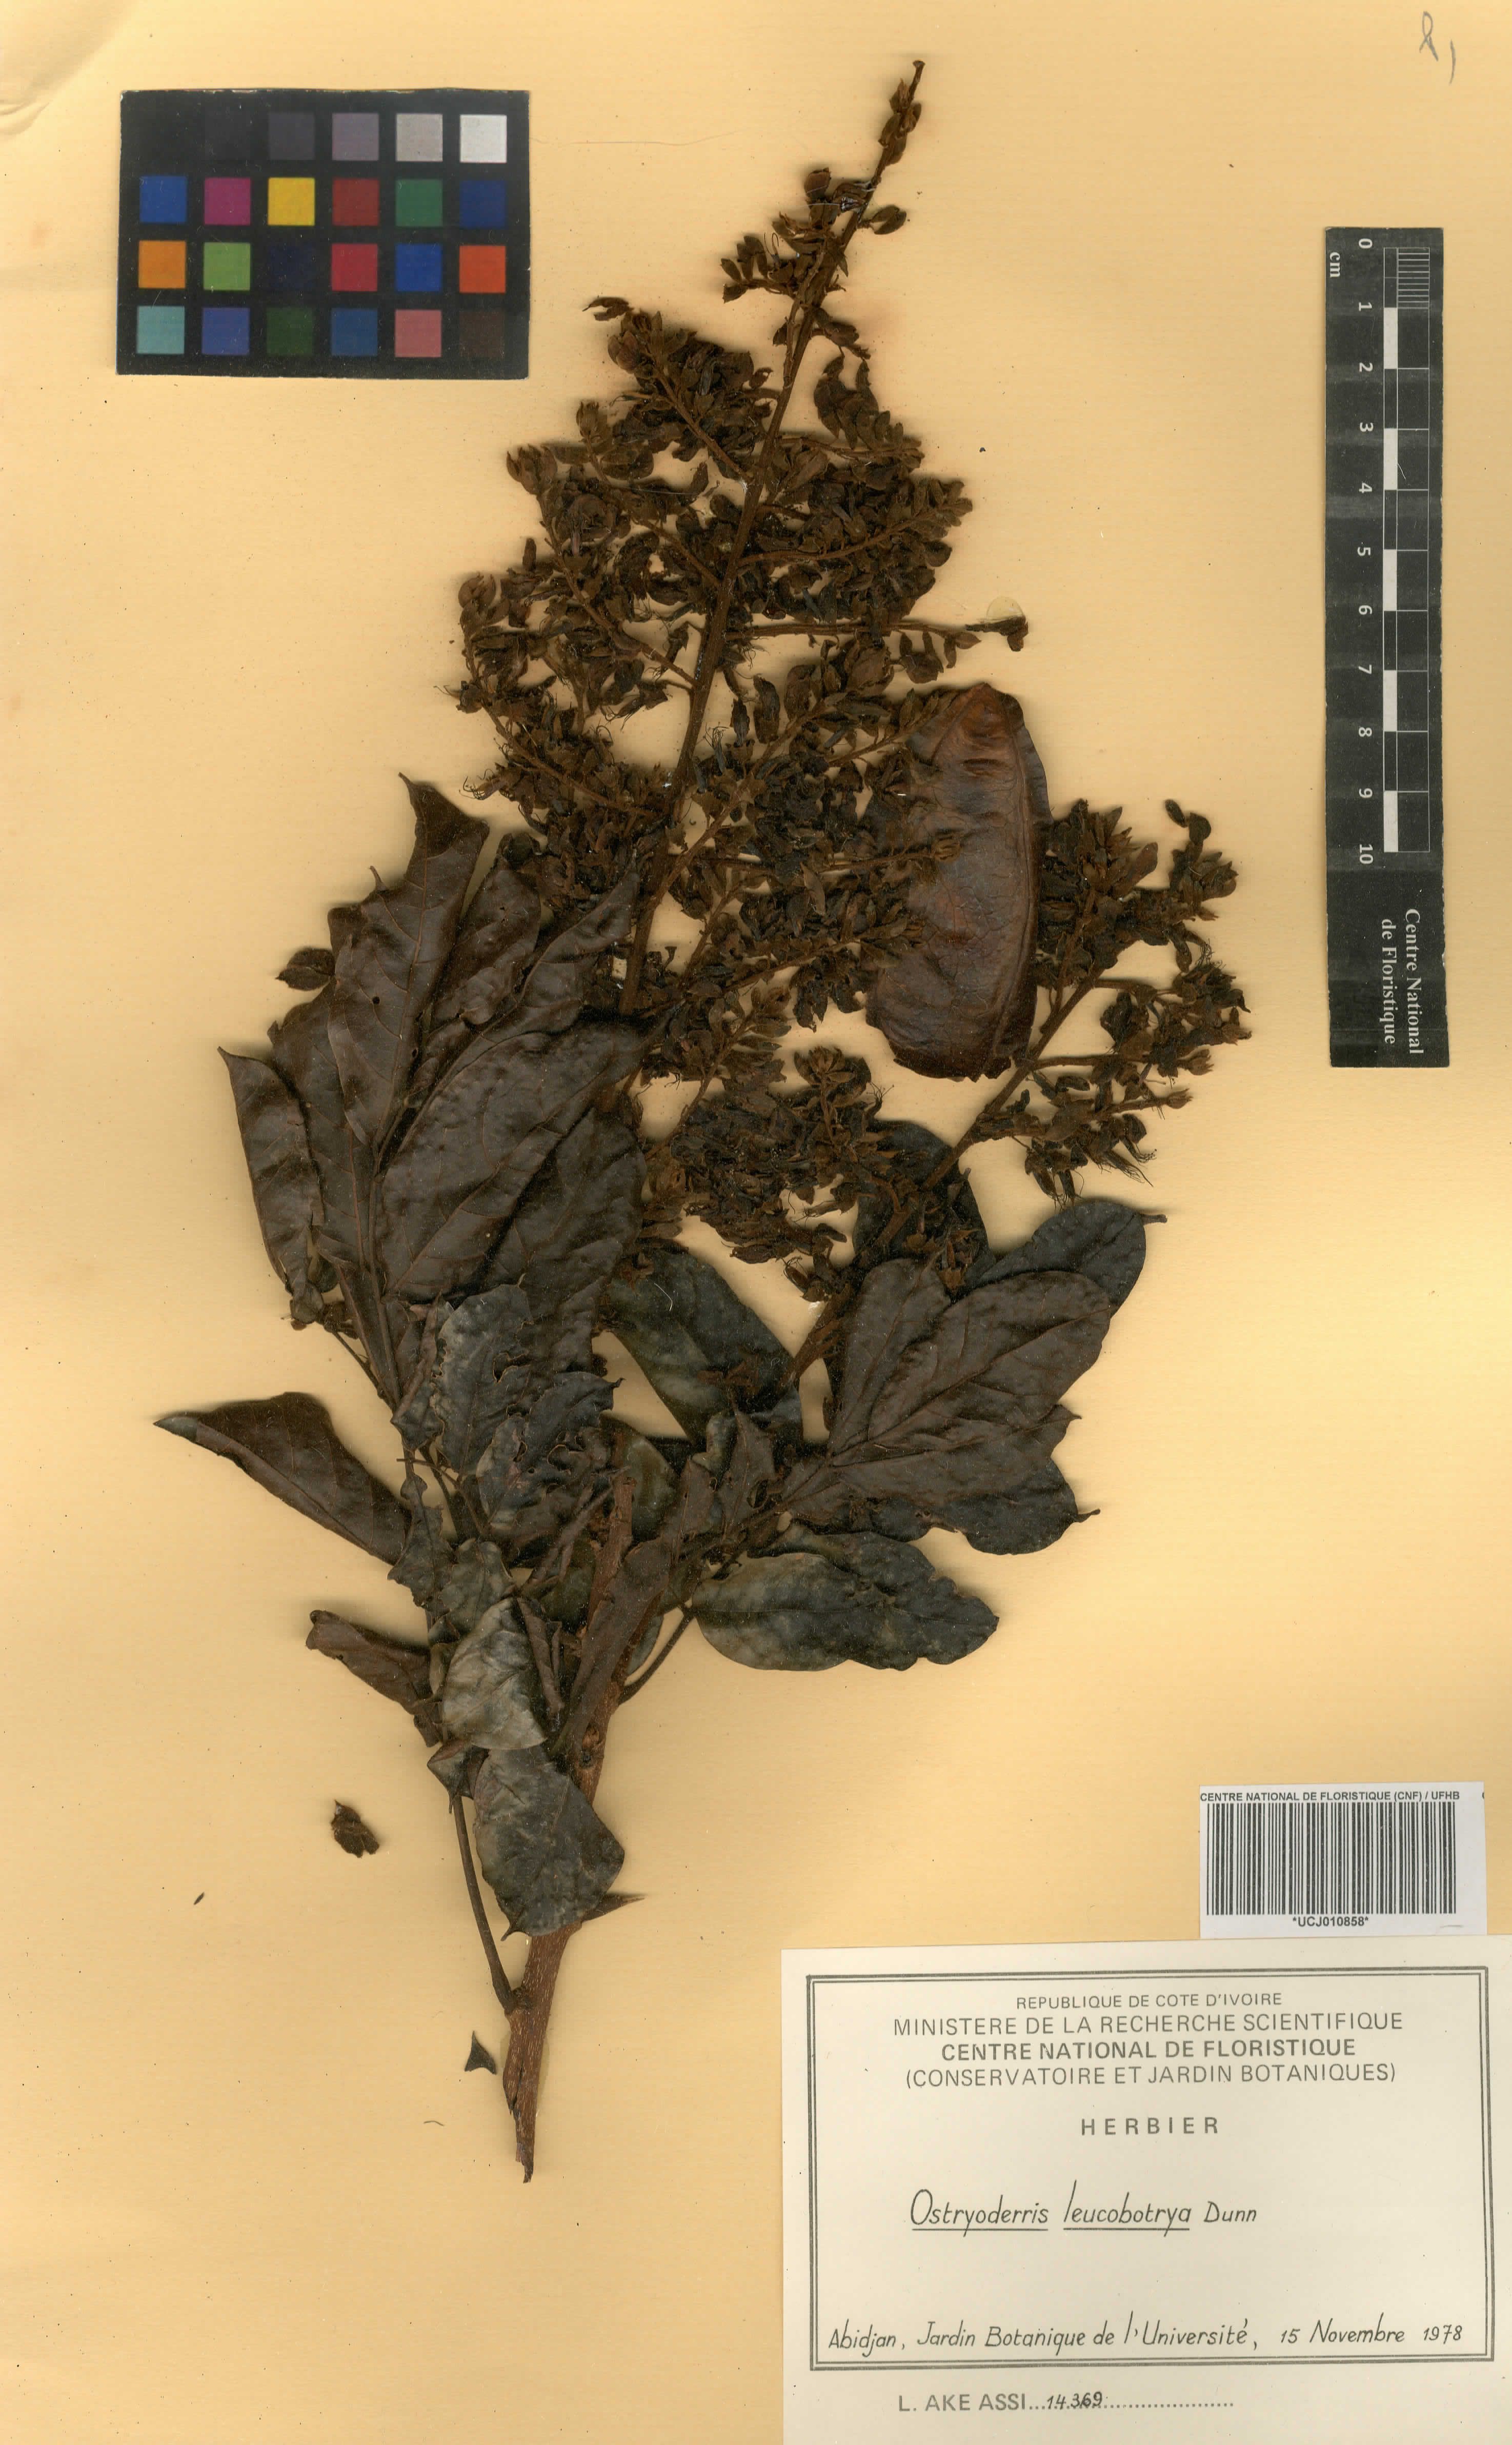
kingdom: Plantae
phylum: Tracheophyta
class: Magnoliopsida
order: Fabales
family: Fabaceae
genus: Aganope
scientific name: Aganope leucobotrya
